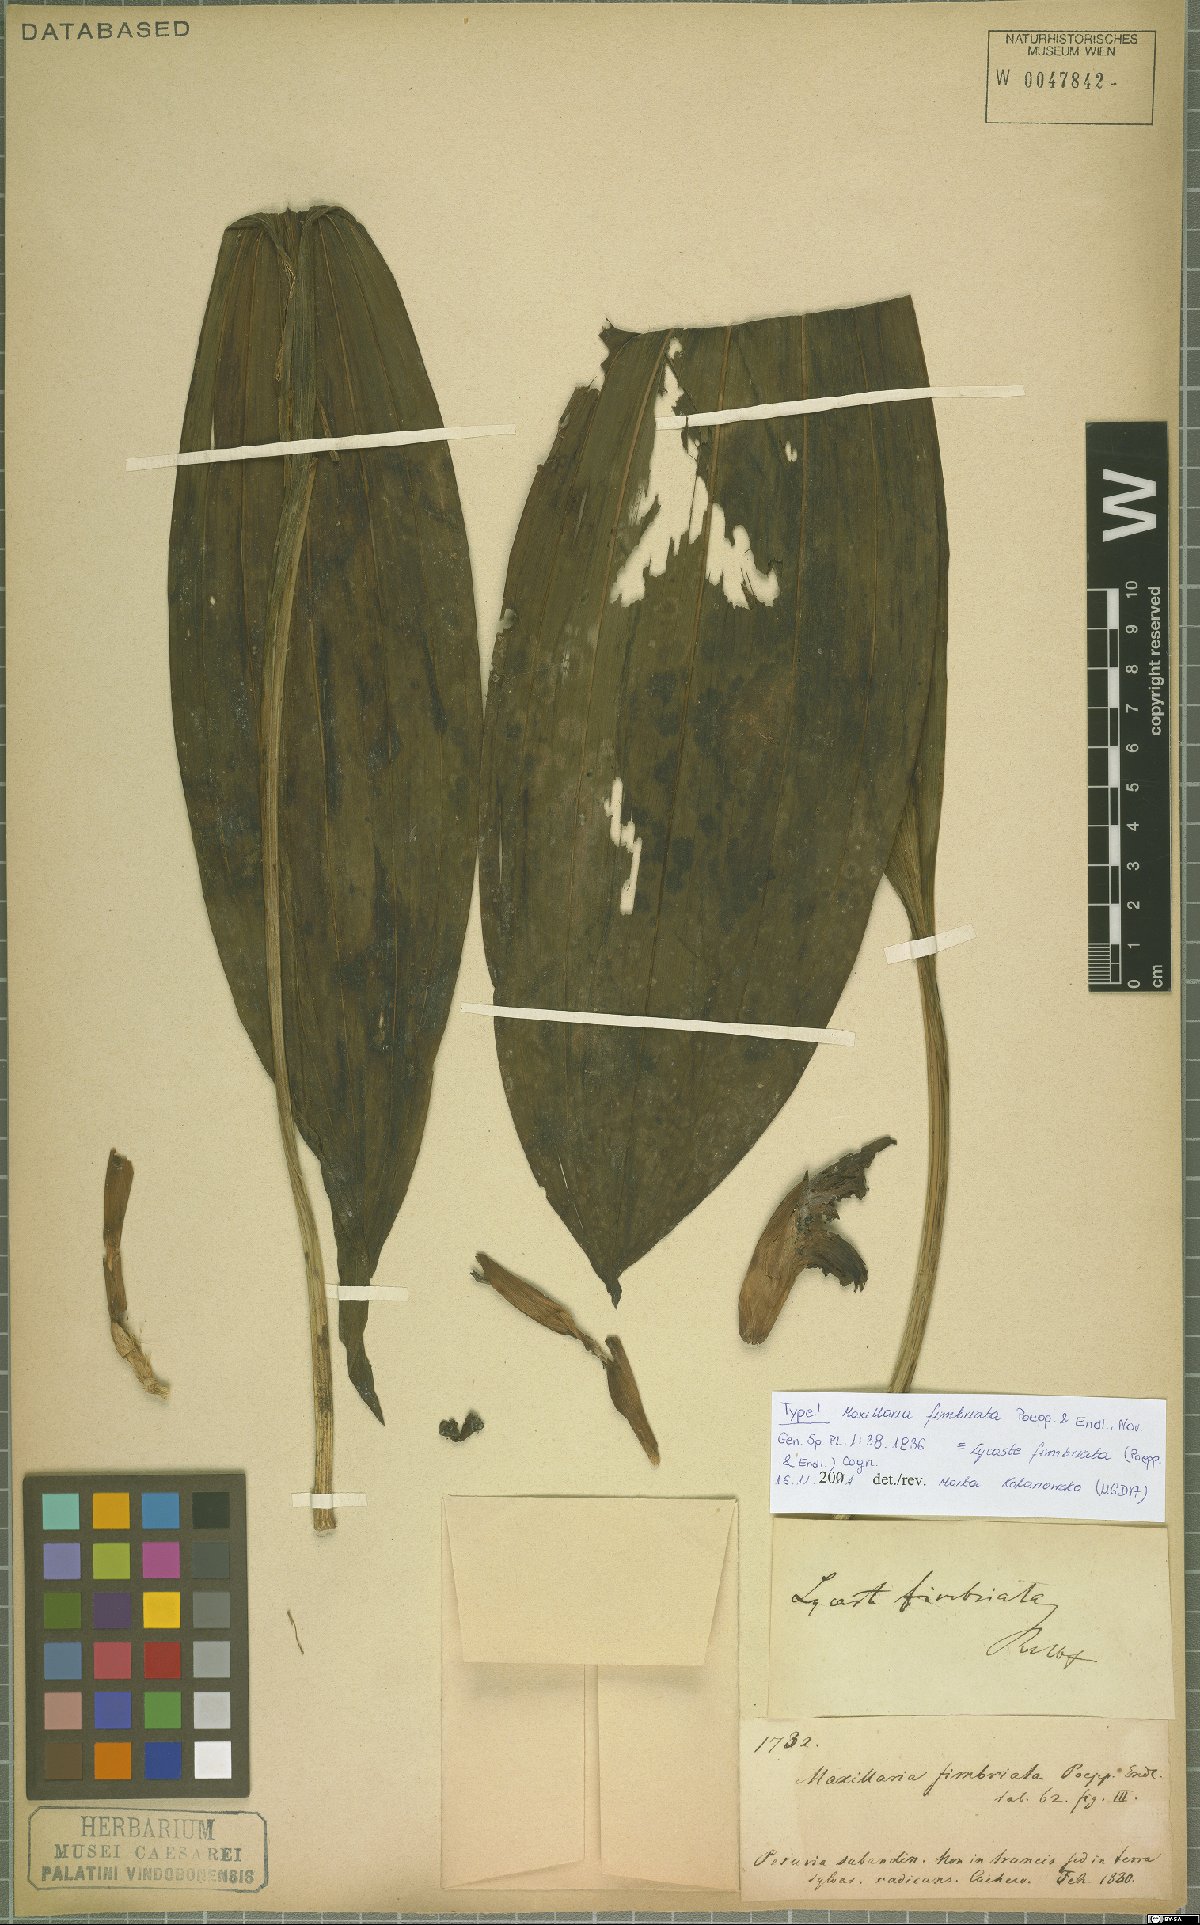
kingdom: Plantae
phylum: Tracheophyta
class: Liliopsida
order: Asparagales
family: Orchidaceae
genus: Ida
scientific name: Ida fimbriata
